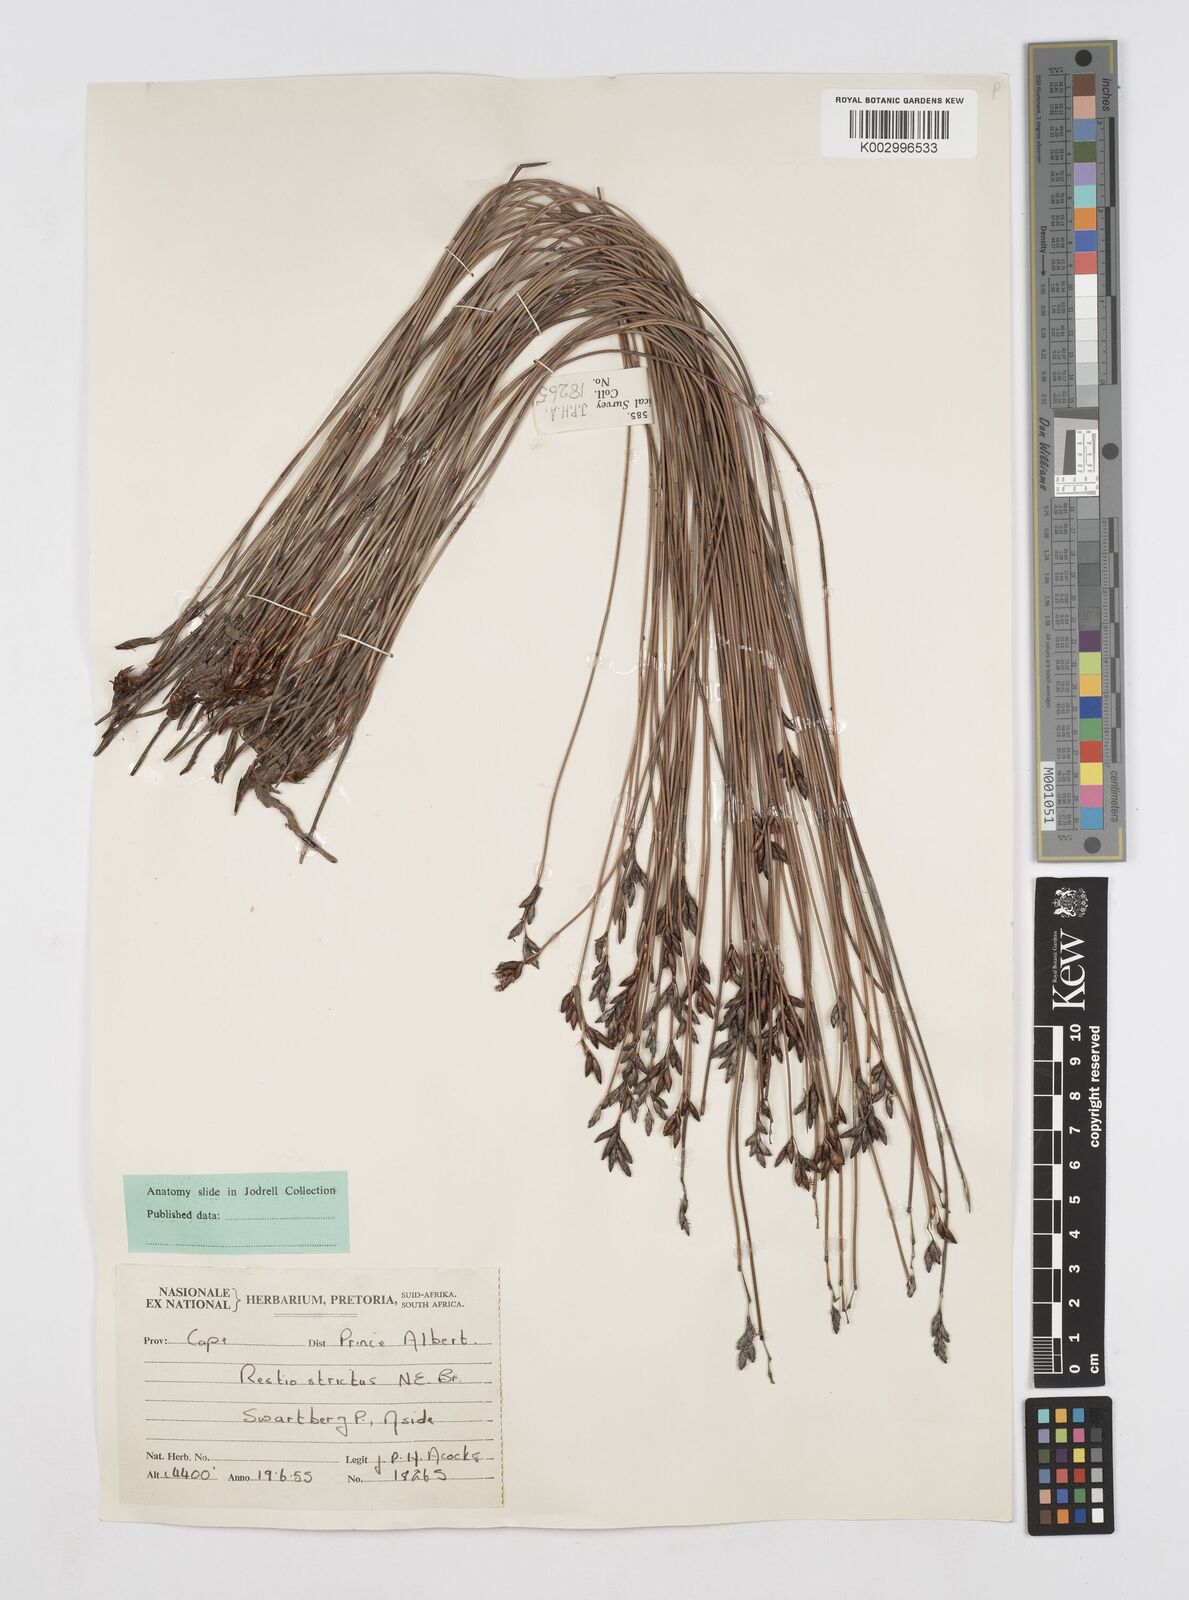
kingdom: Plantae
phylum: Tracheophyta
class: Liliopsida
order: Poales
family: Restionaceae
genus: Hypodiscus
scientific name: Hypodiscus striatus
